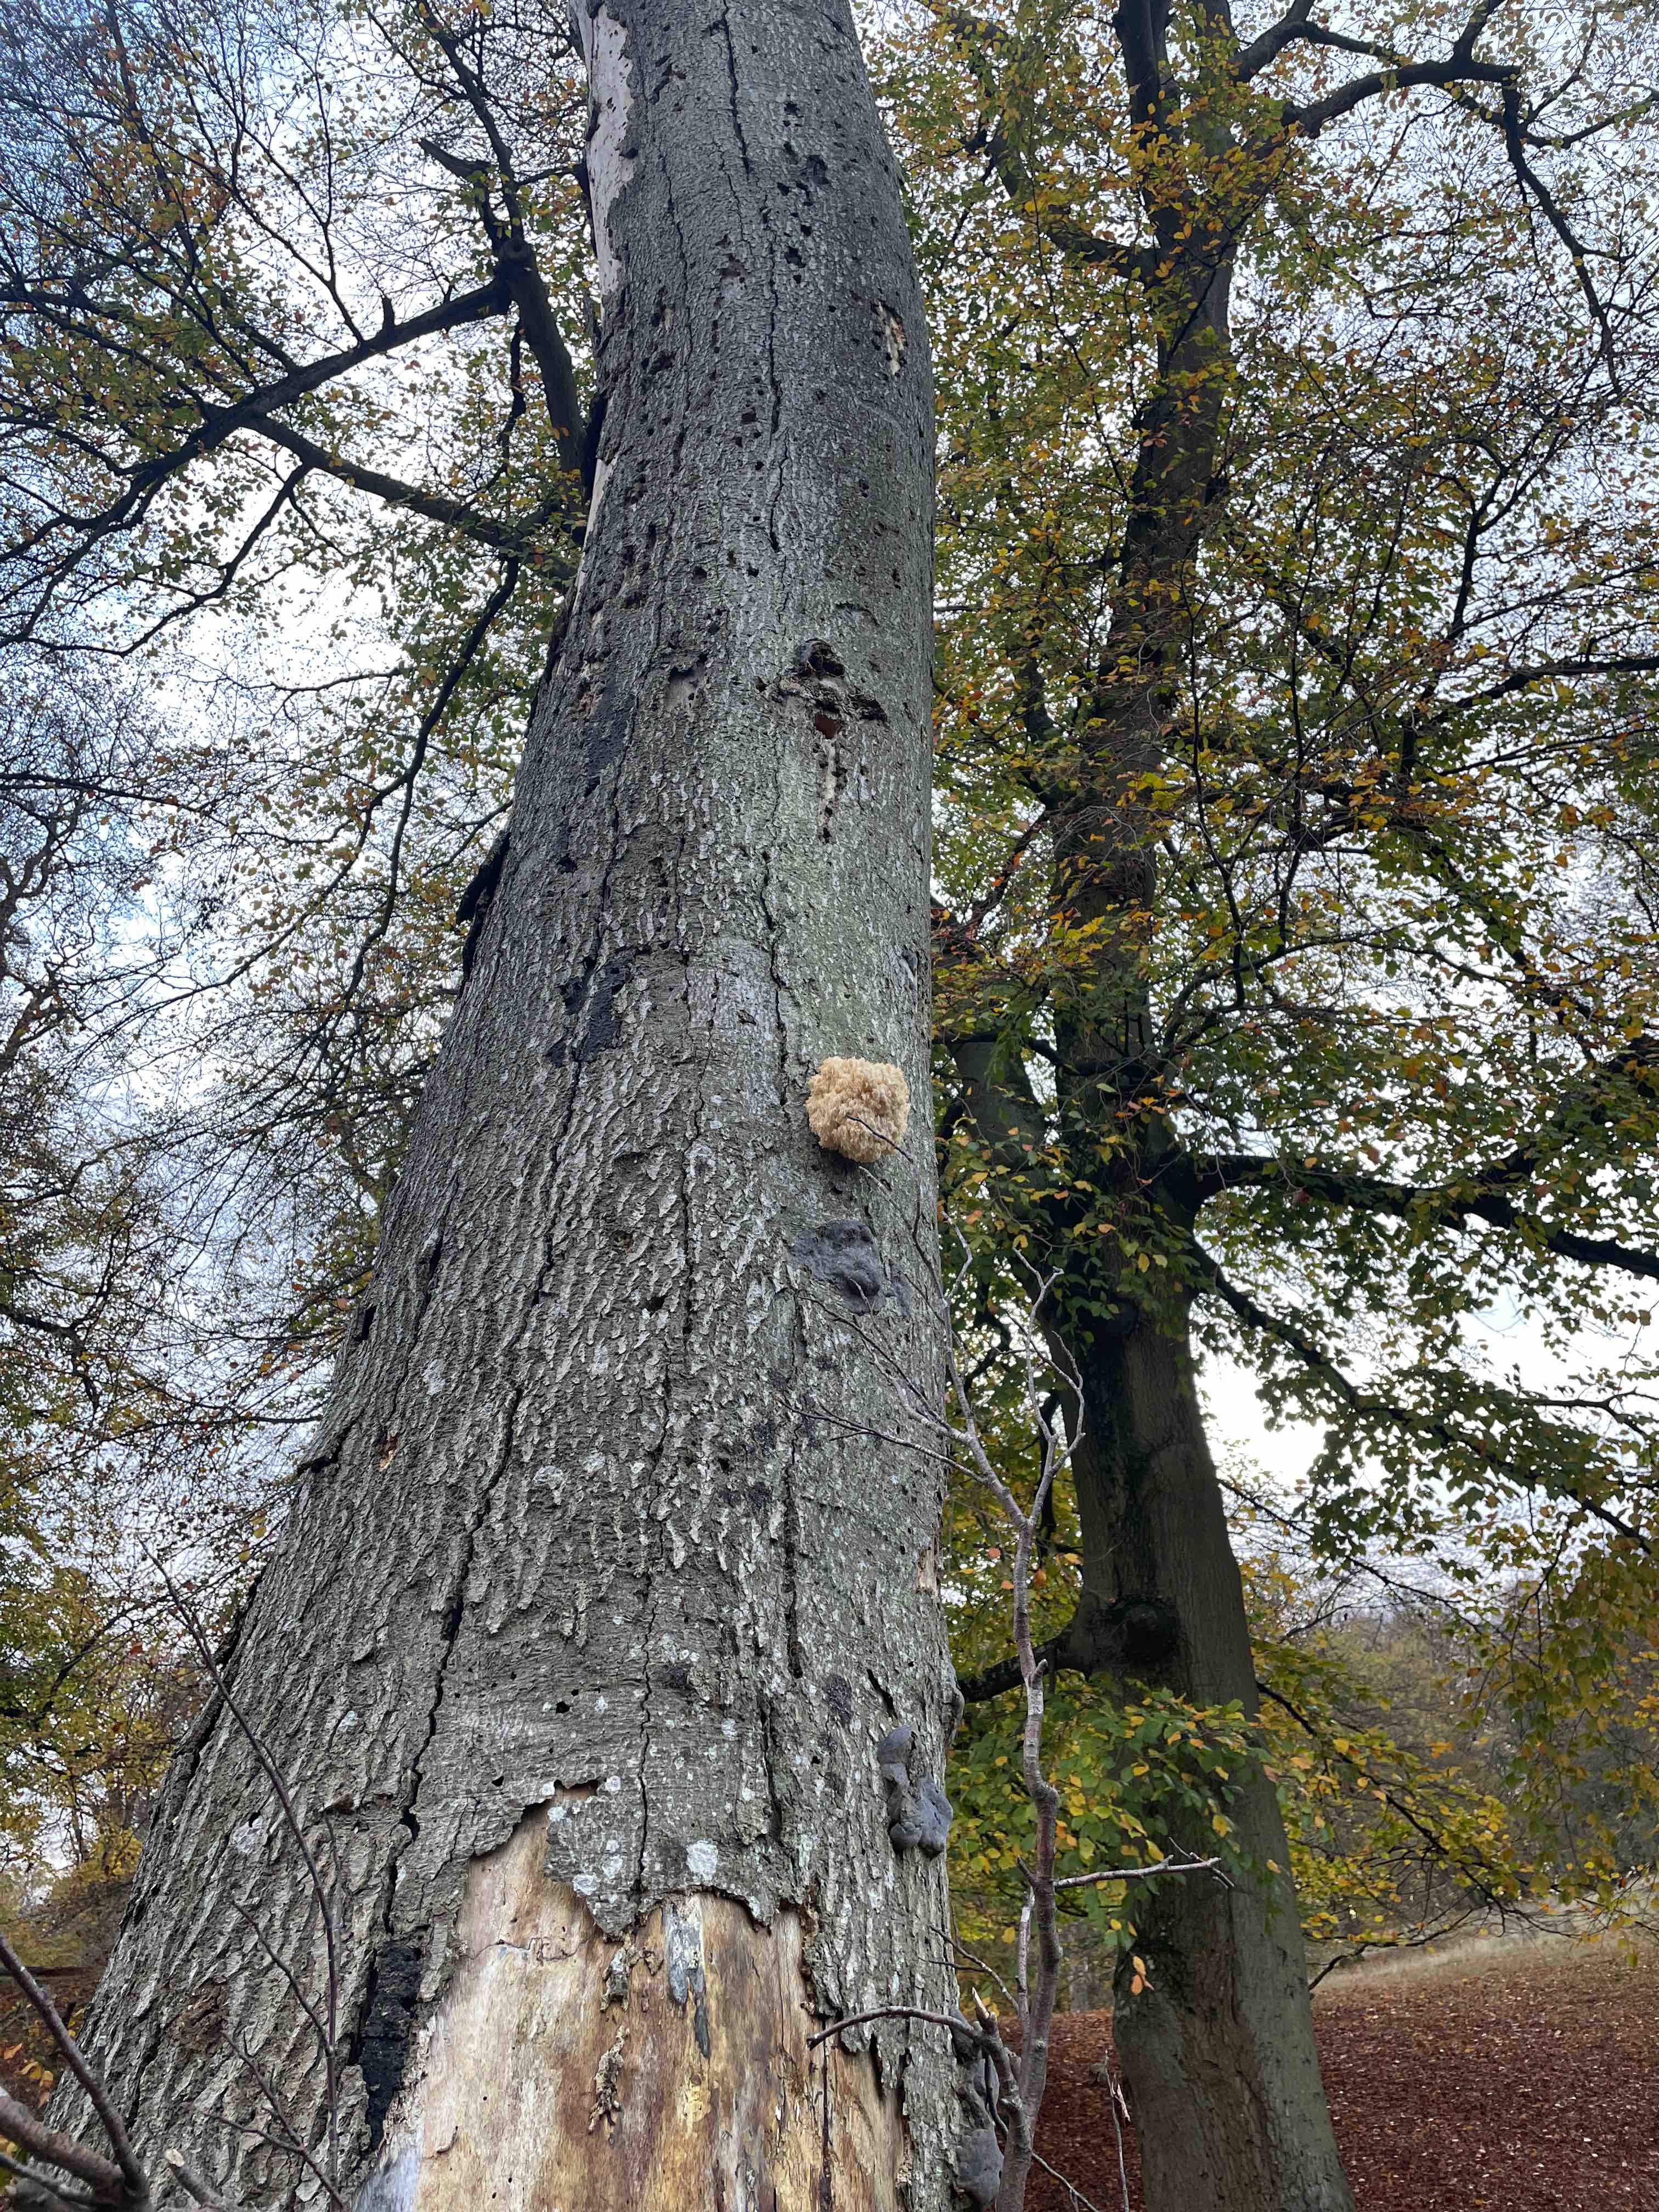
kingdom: Fungi
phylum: Basidiomycota
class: Agaricomycetes
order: Russulales
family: Hericiaceae
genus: Hericium
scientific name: Hericium coralloides
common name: koralpigsvamp
